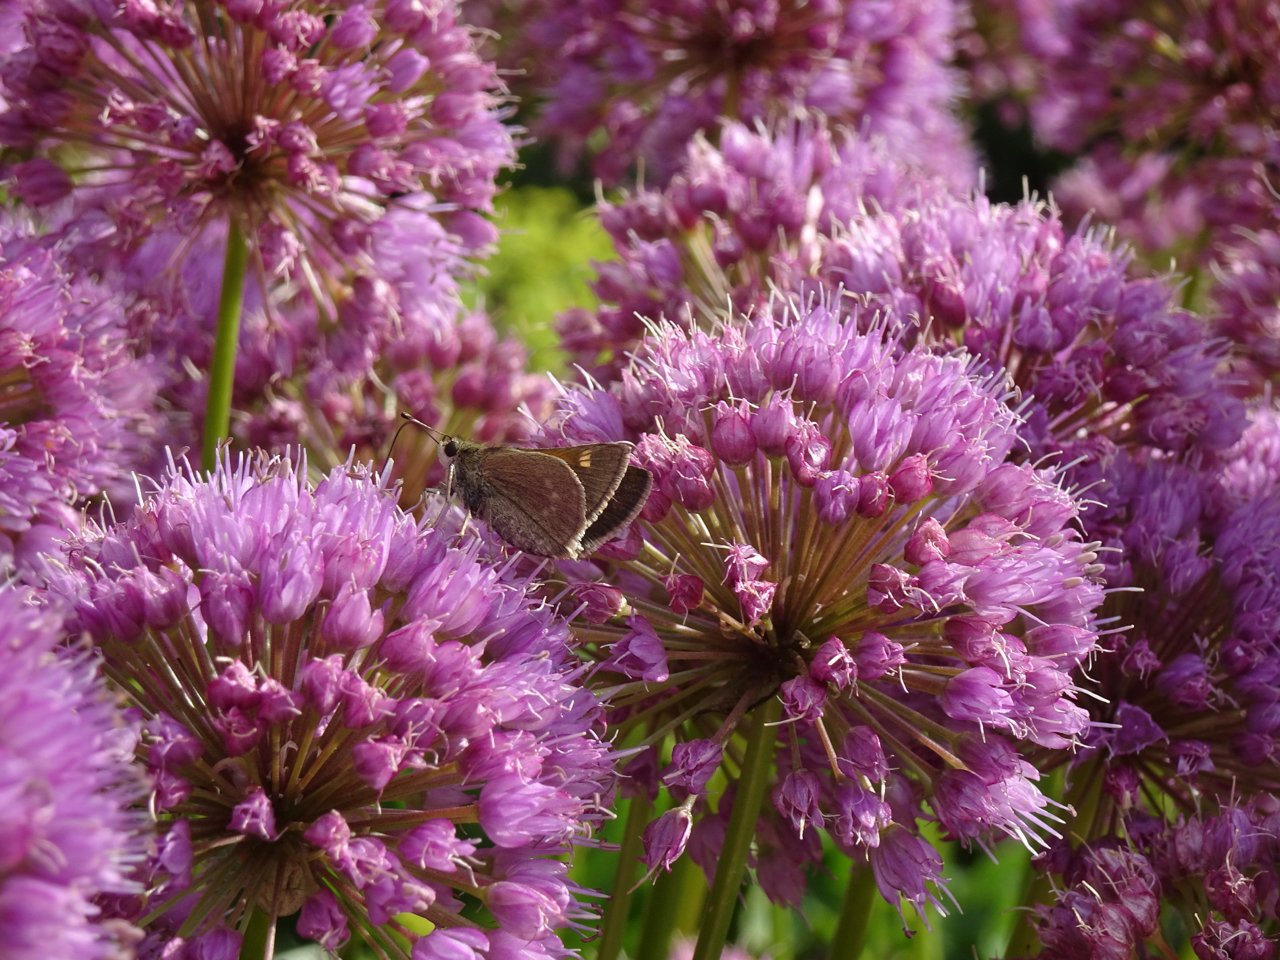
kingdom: Animalia
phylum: Arthropoda
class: Insecta
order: Lepidoptera
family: Hesperiidae
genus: Polites
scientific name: Polites themistocles
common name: Tawny-edged Skipper
